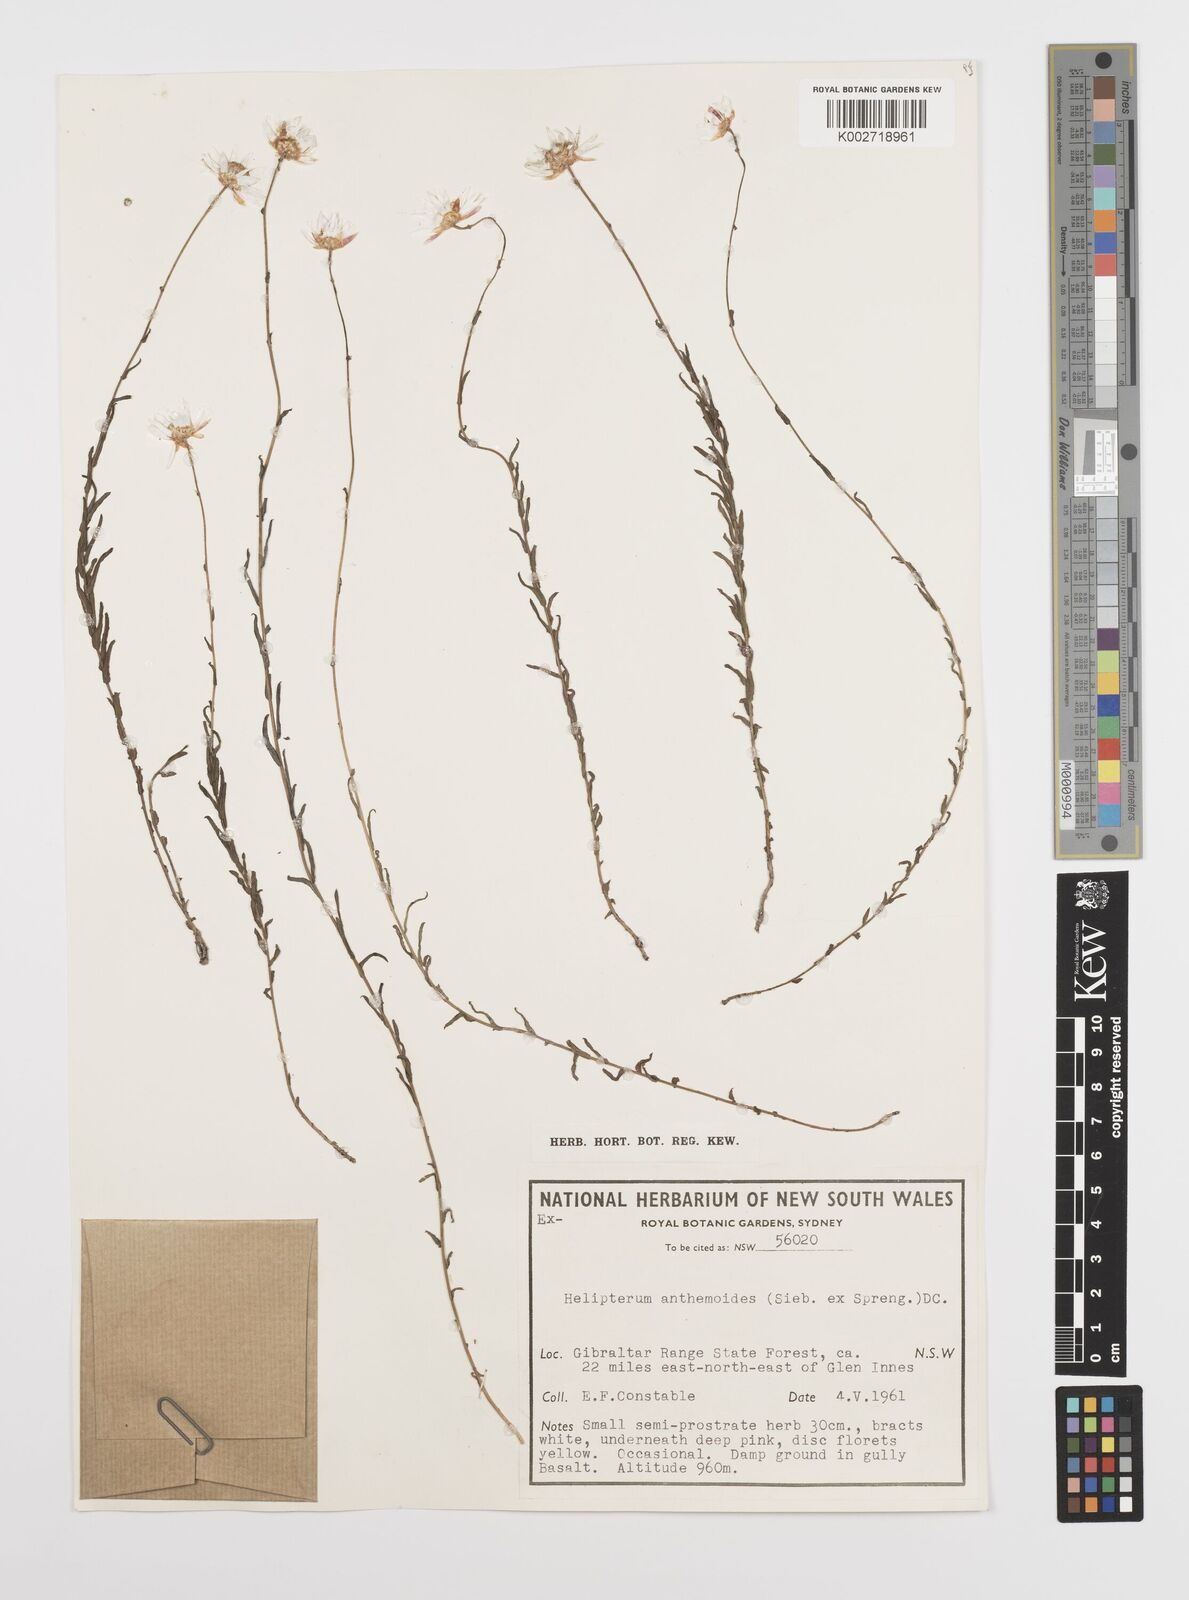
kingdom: Plantae
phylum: Tracheophyta
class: Magnoliopsida
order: Asterales
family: Asteraceae
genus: Rhodanthe
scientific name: Rhodanthe anthemoides
